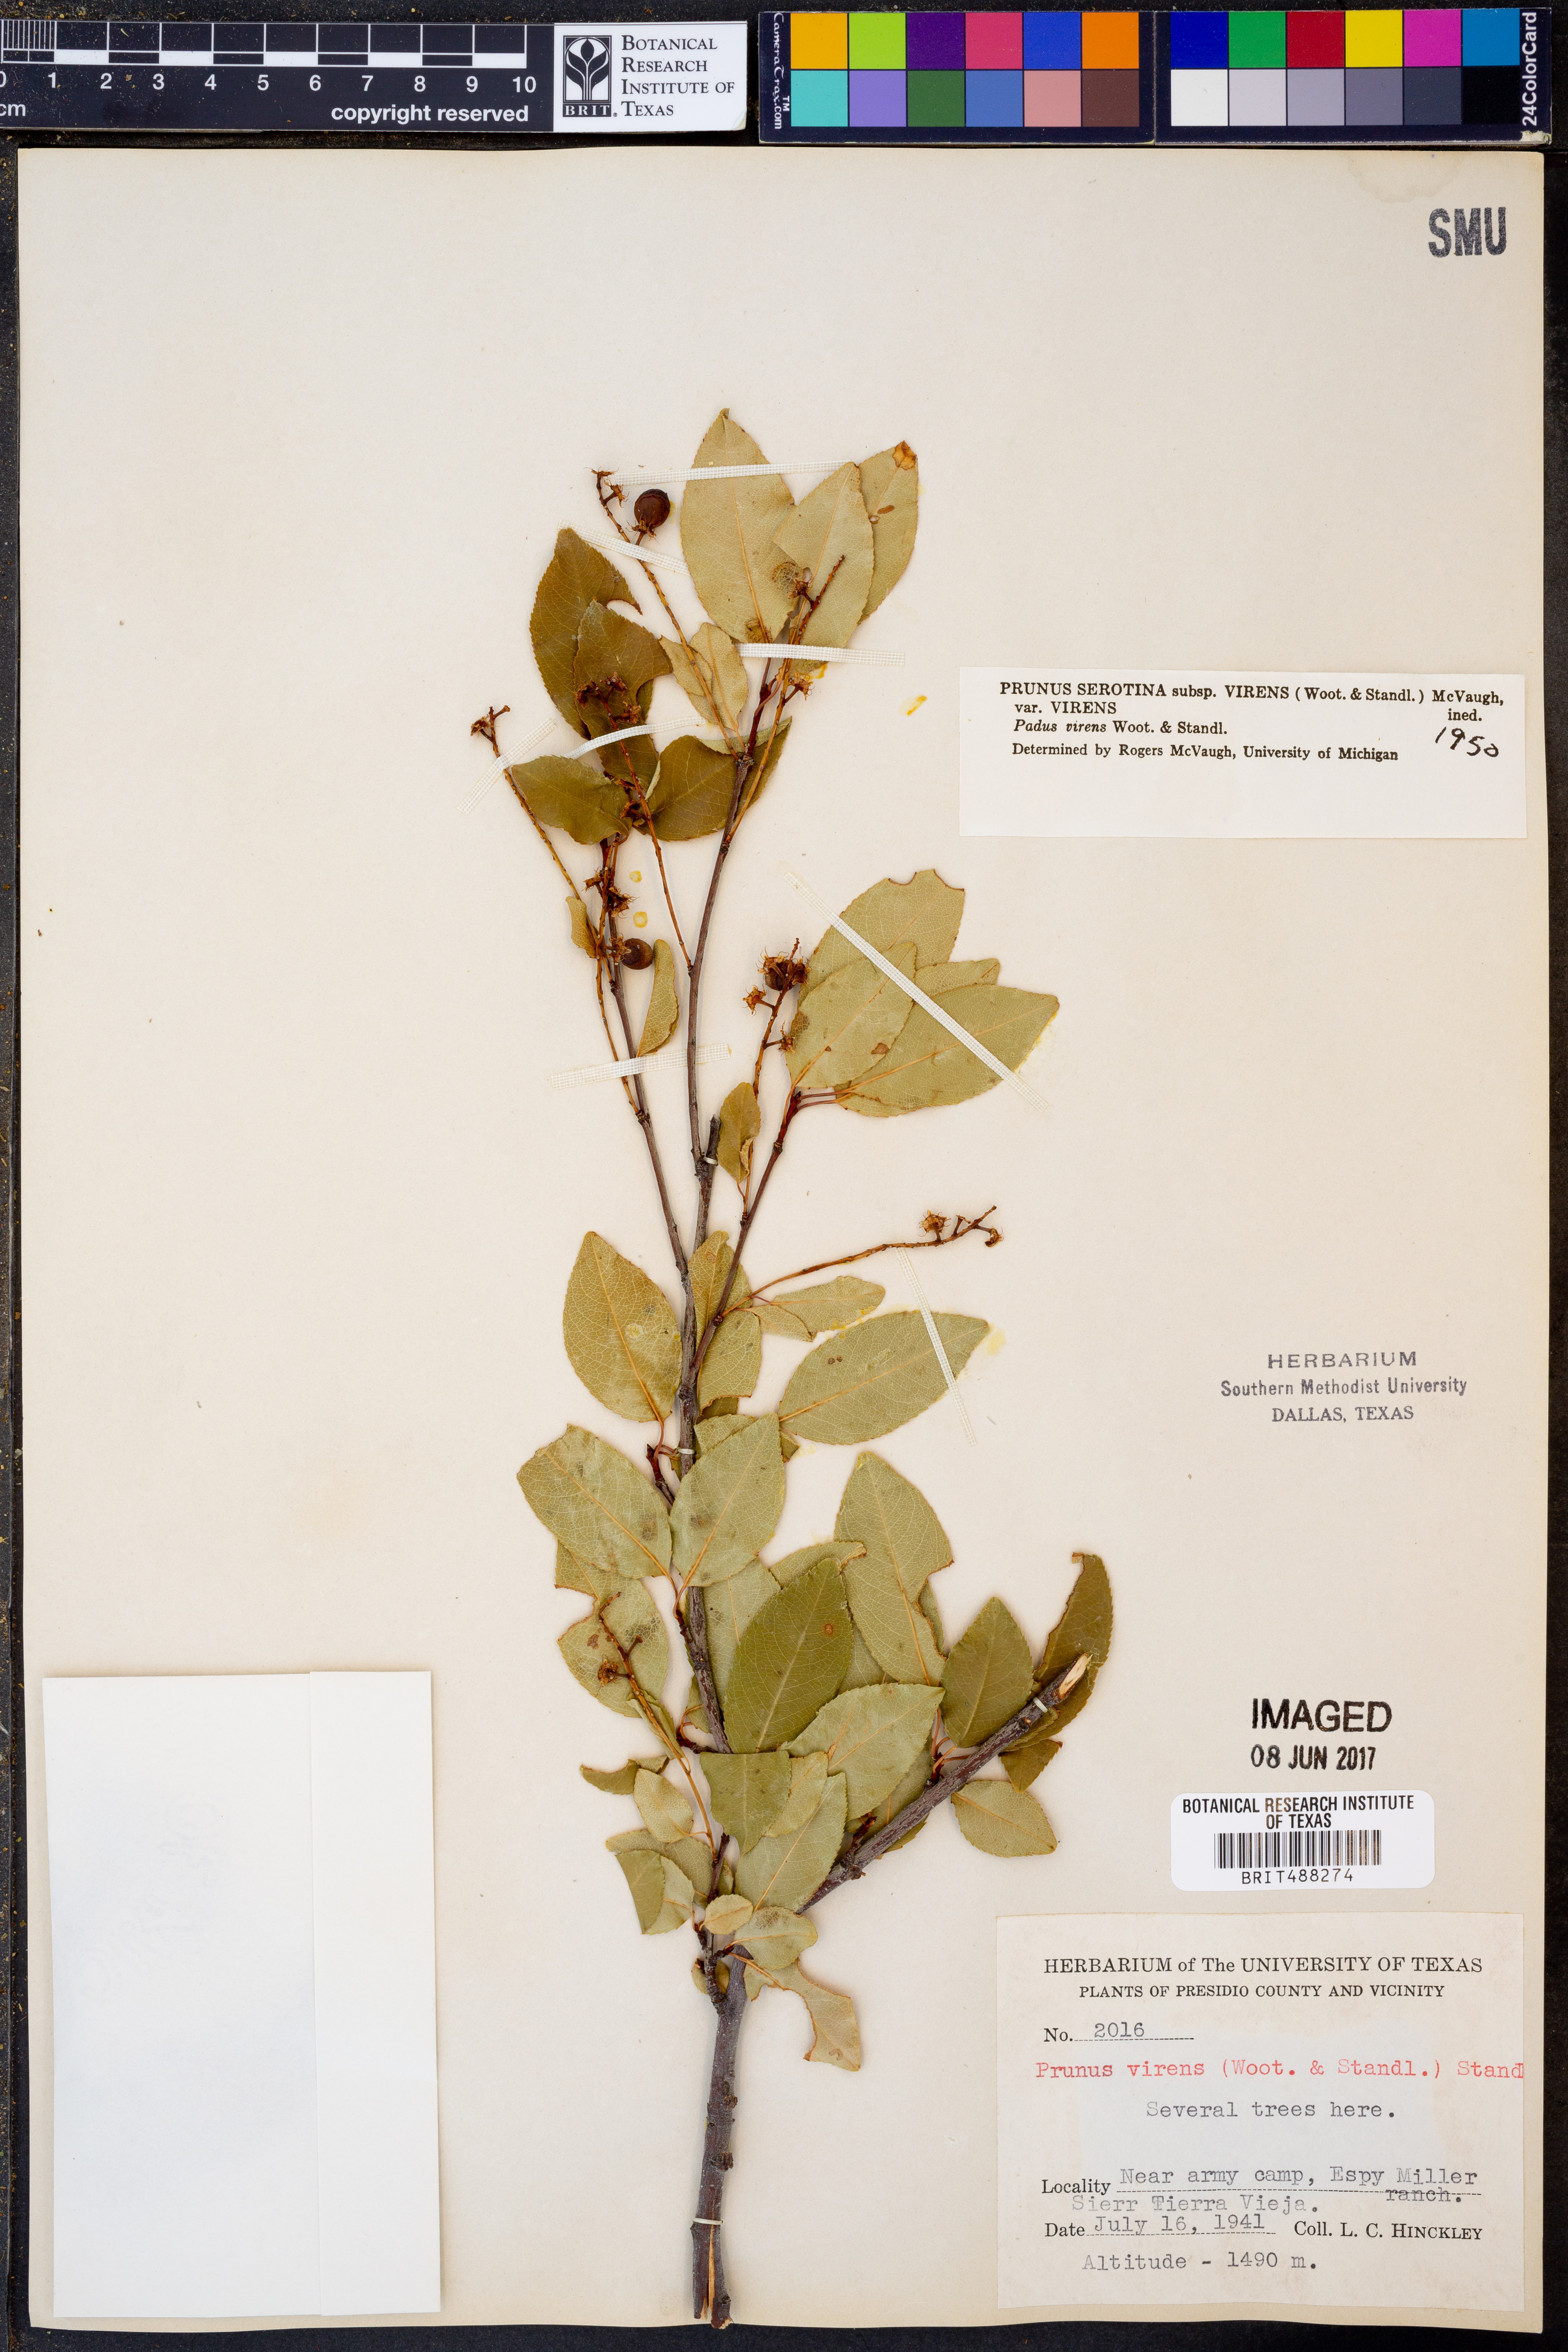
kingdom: Plantae
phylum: Tracheophyta
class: Magnoliopsida
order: Rosales
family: Rosaceae
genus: Prunus
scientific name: Prunus serotina
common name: Black cherry
